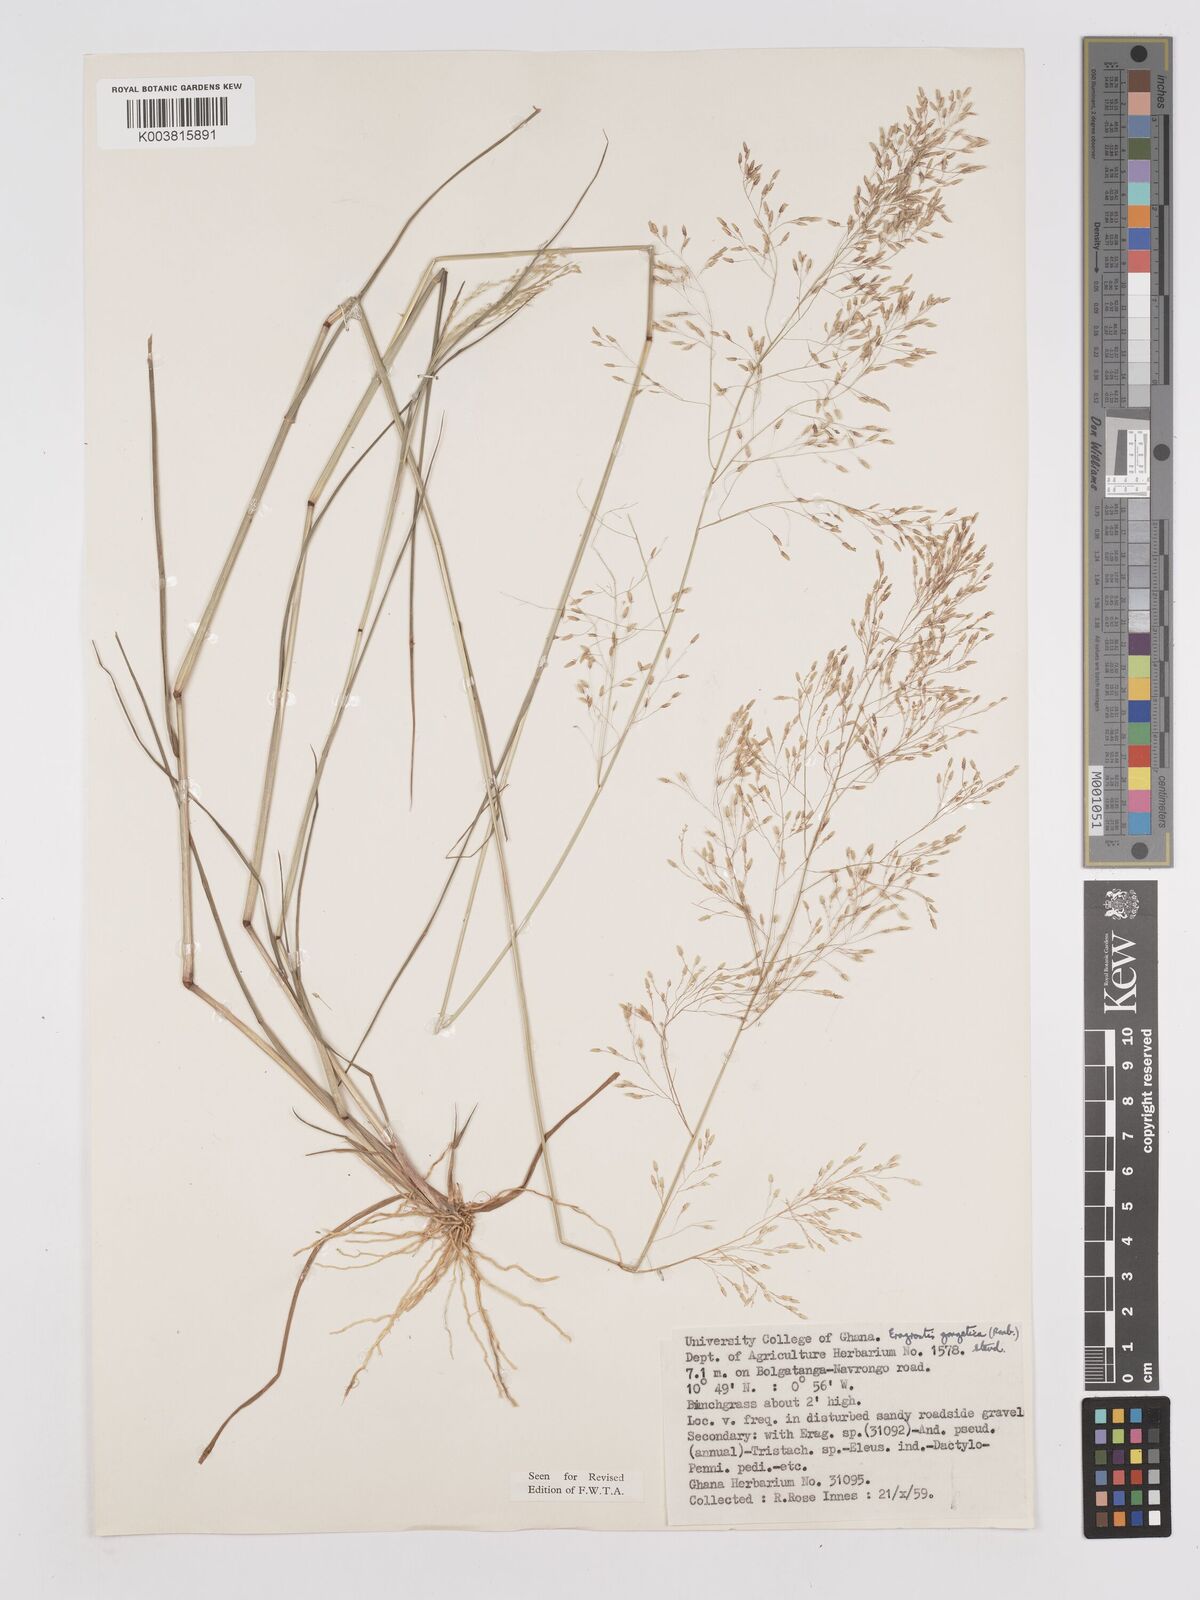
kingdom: Plantae
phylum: Tracheophyta
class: Liliopsida
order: Poales
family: Poaceae
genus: Eragrostis
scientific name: Eragrostis gangetica
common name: Slimflower lovegrass
